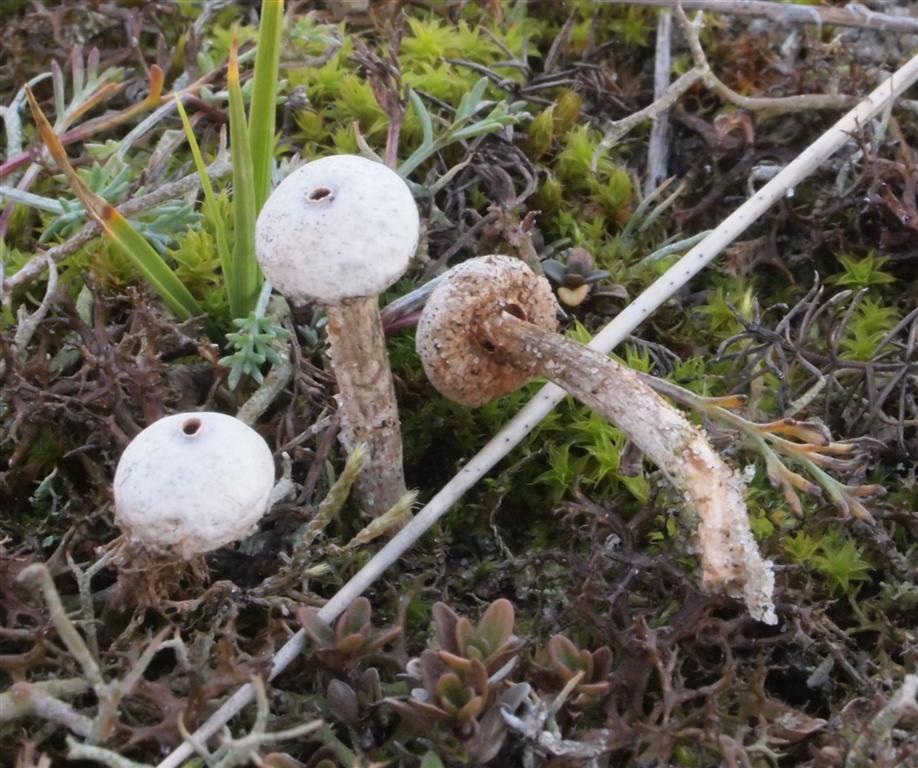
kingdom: Fungi
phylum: Basidiomycota
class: Agaricomycetes
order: Agaricales
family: Agaricaceae
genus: Tulostoma
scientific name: Tulostoma brumale
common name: vinter-stilkbovist
